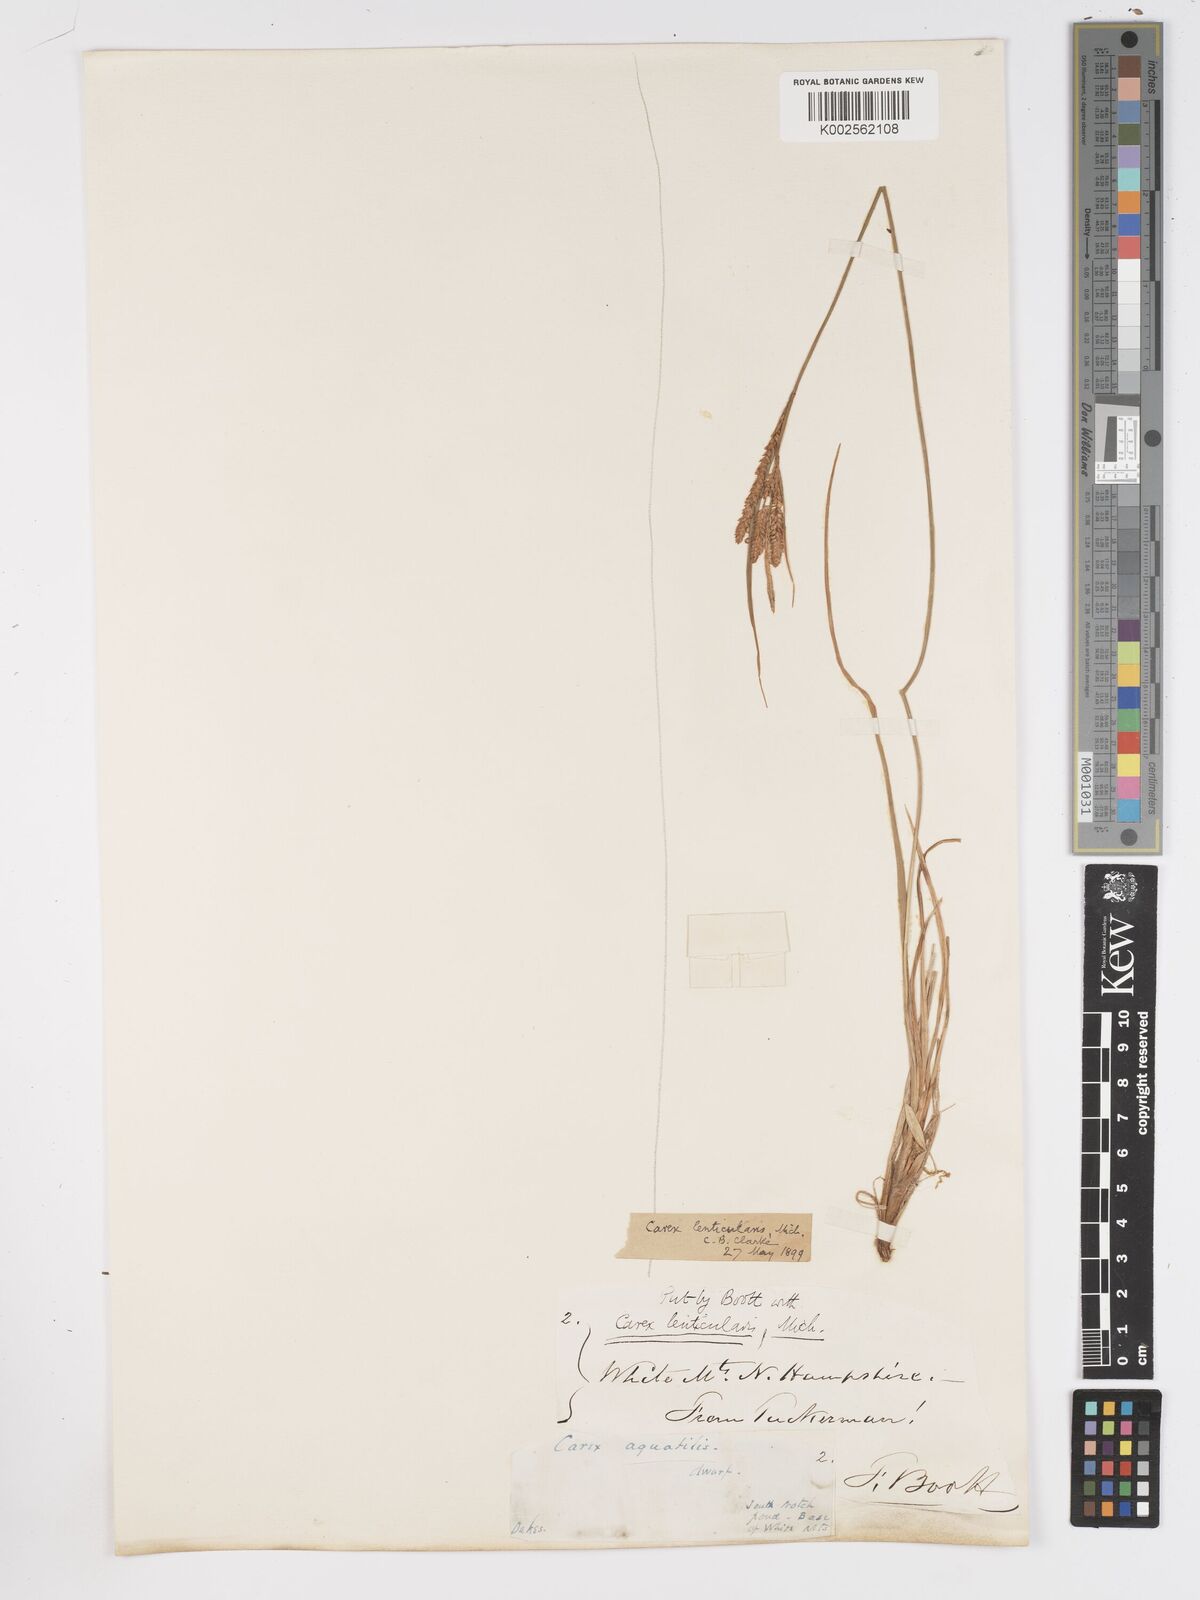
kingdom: Plantae
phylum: Tracheophyta
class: Liliopsida
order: Poales
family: Cyperaceae
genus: Carex
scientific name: Carex lenticularis
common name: Lakeshore sedge
